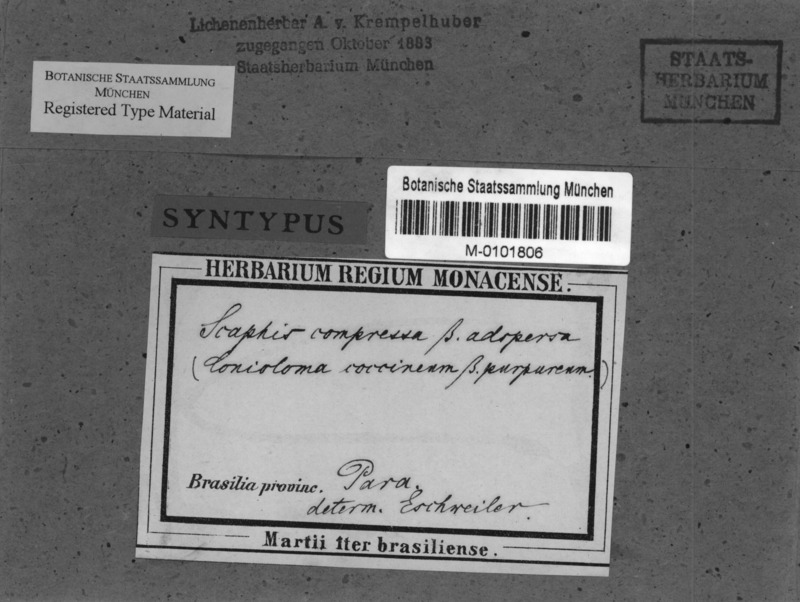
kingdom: Fungi
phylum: Ascomycota
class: Arthoniomycetes
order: Arthoniales
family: Opegraphaceae
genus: Opegrapha
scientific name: Opegrapha
